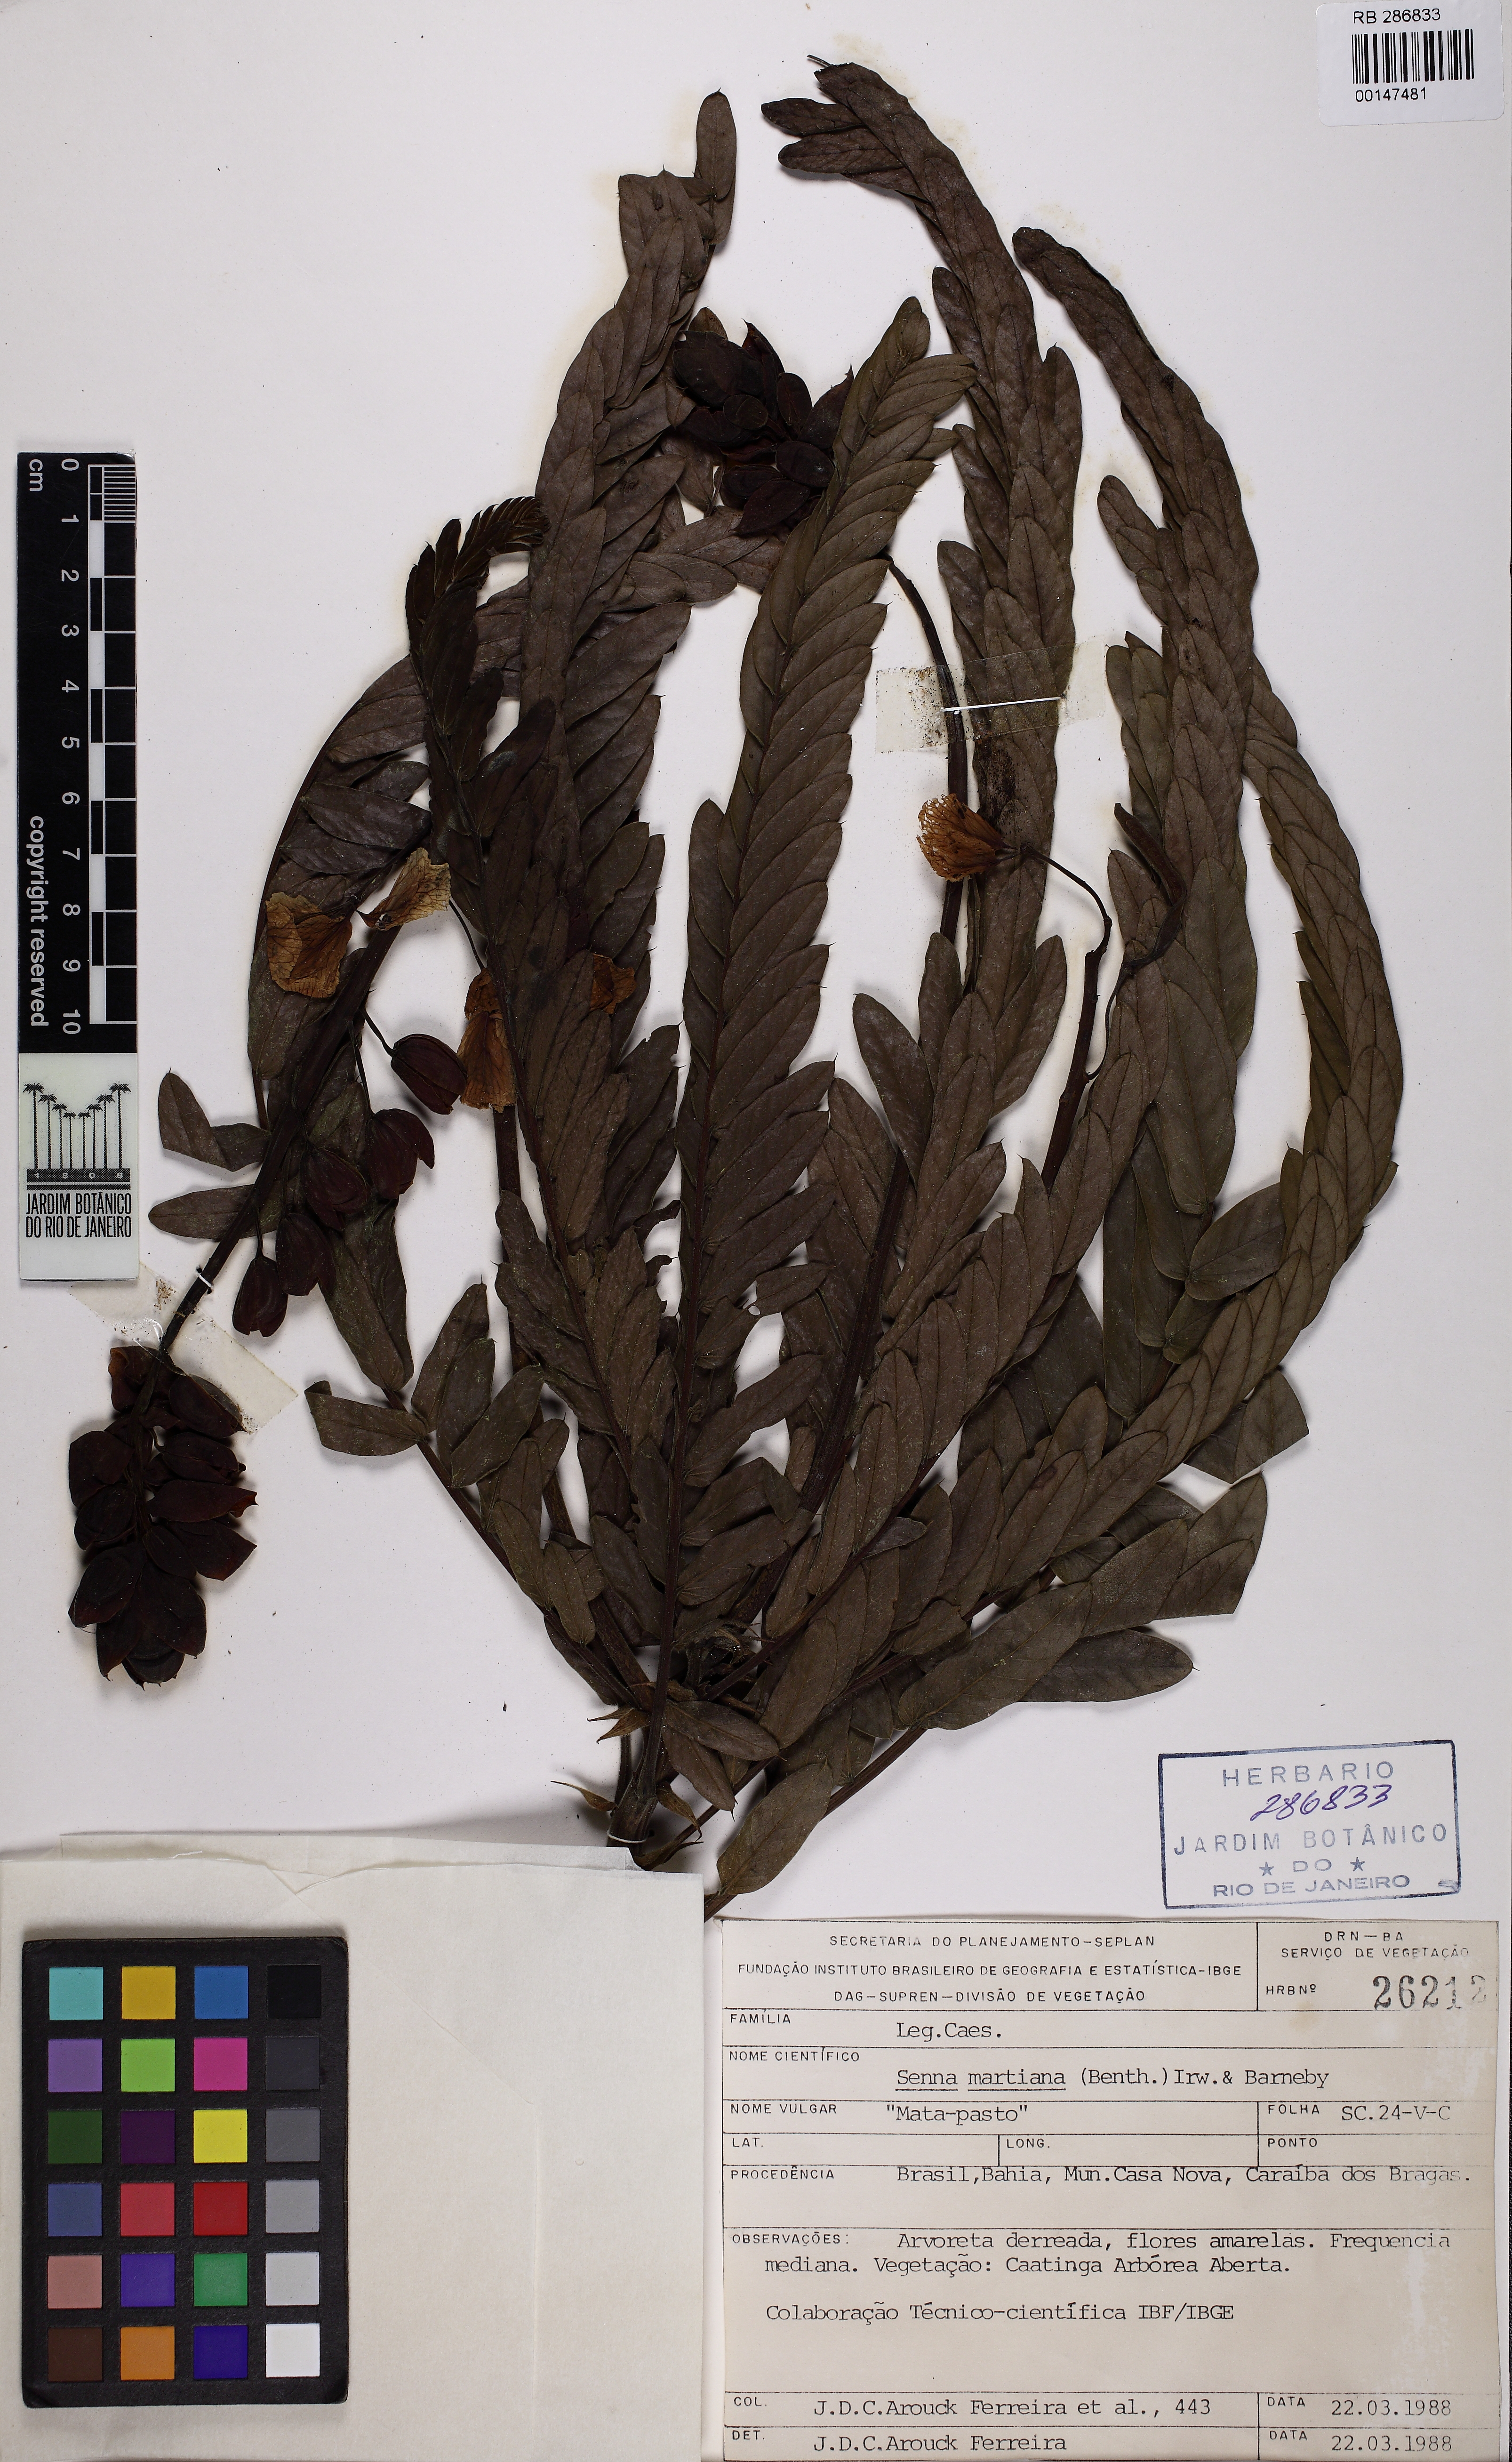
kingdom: Plantae
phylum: Tracheophyta
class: Magnoliopsida
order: Fabales
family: Fabaceae
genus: Senna
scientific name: Senna martiana
